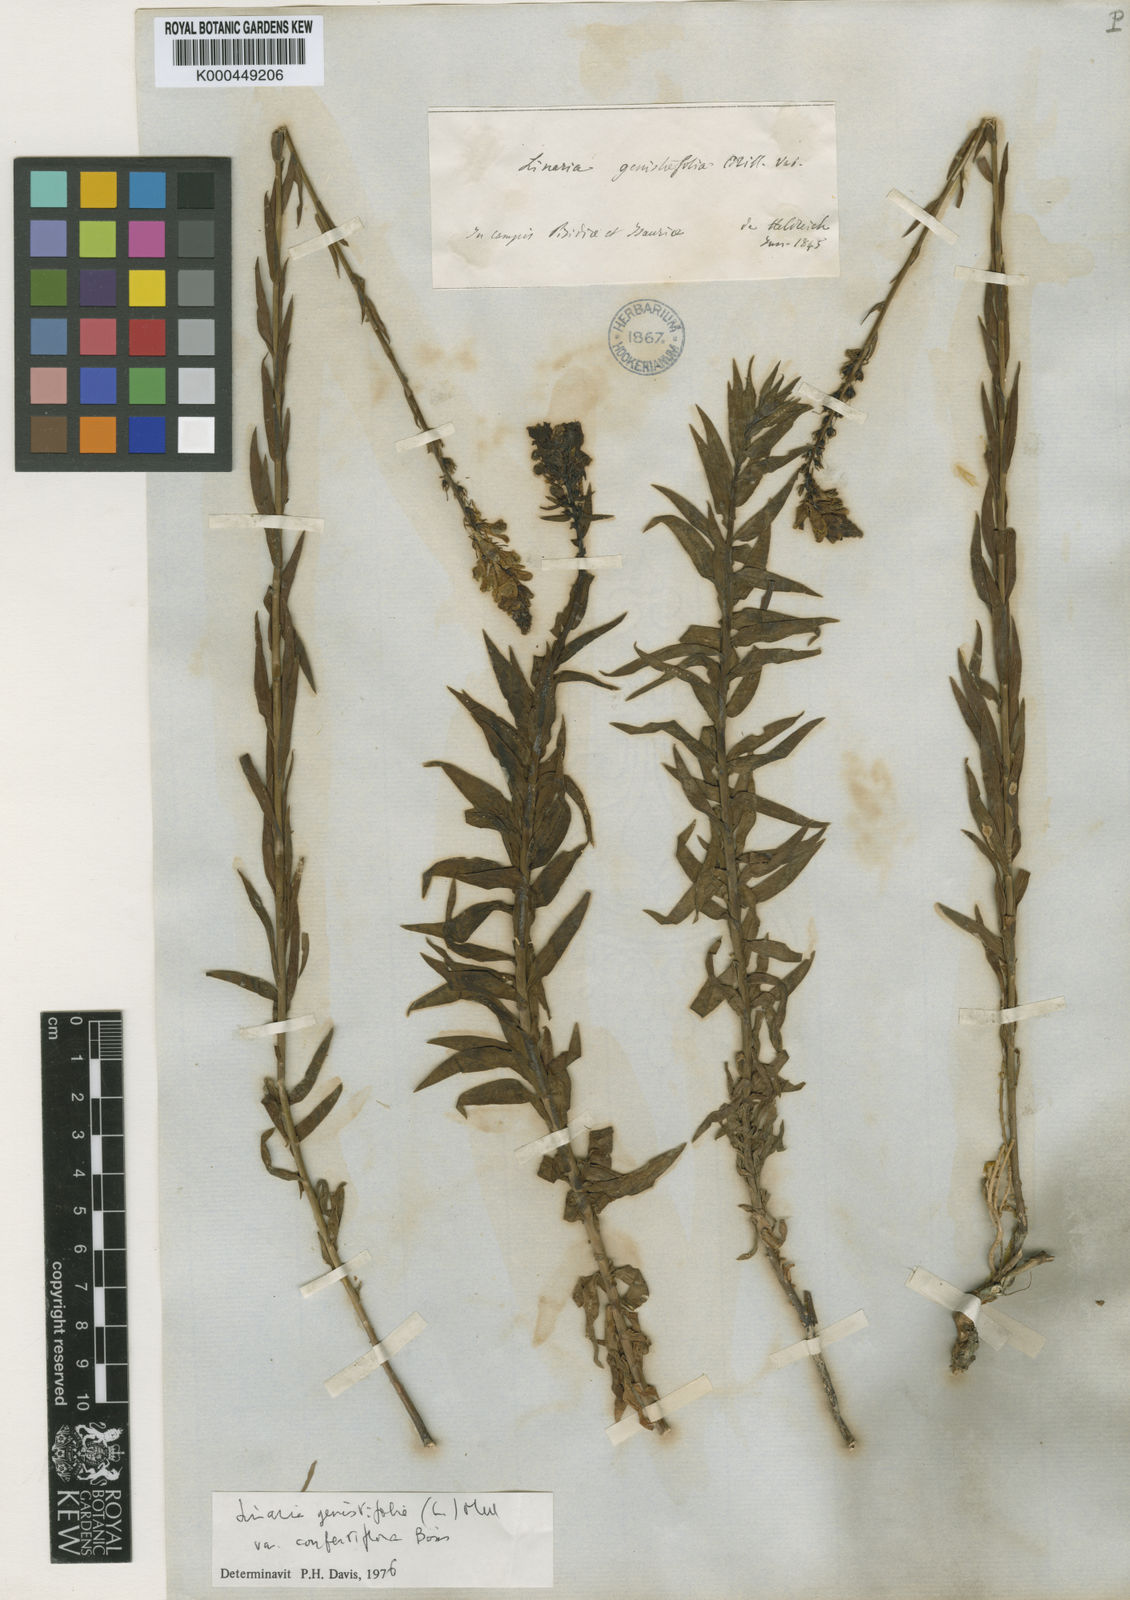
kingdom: Plantae
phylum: Tracheophyta
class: Magnoliopsida
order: Lamiales
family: Plantaginaceae
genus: Linaria
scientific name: Linaria genistifolia
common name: Broomleaf toadflax
